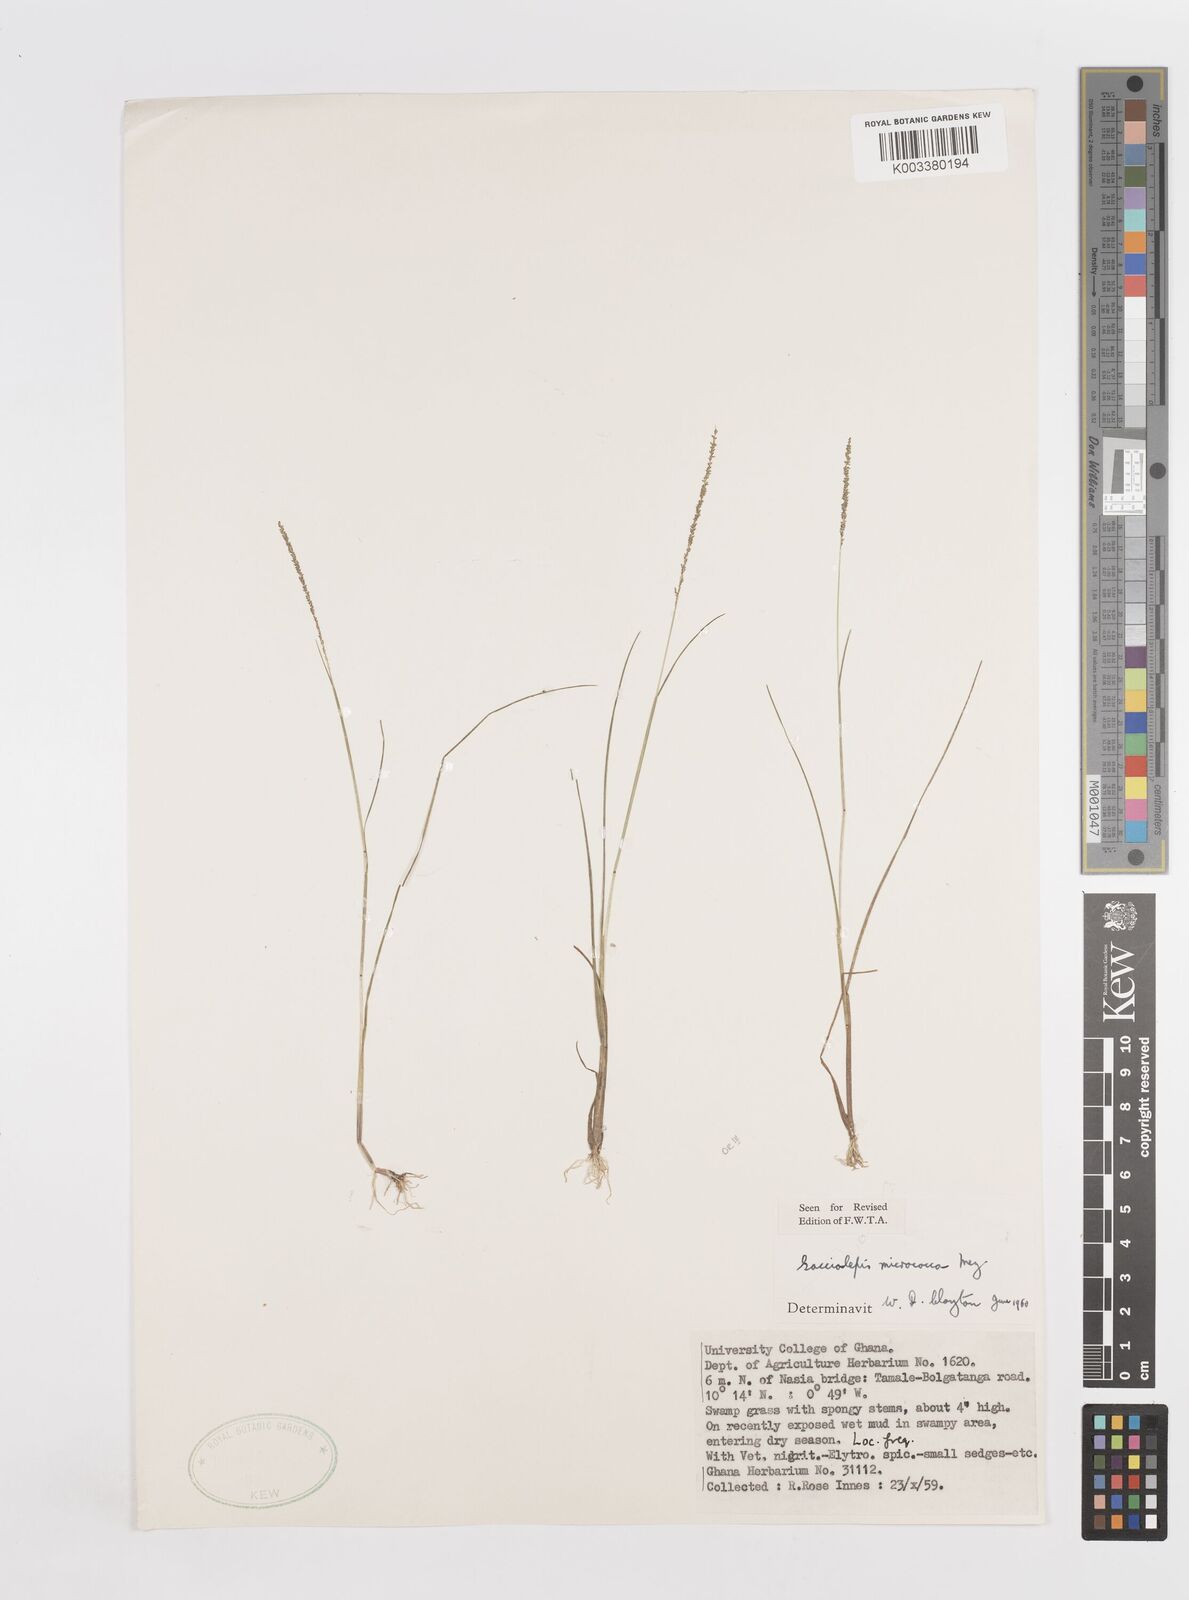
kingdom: Plantae
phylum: Tracheophyta
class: Liliopsida
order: Poales
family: Poaceae
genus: Sacciolepis
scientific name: Sacciolepis micrococca
